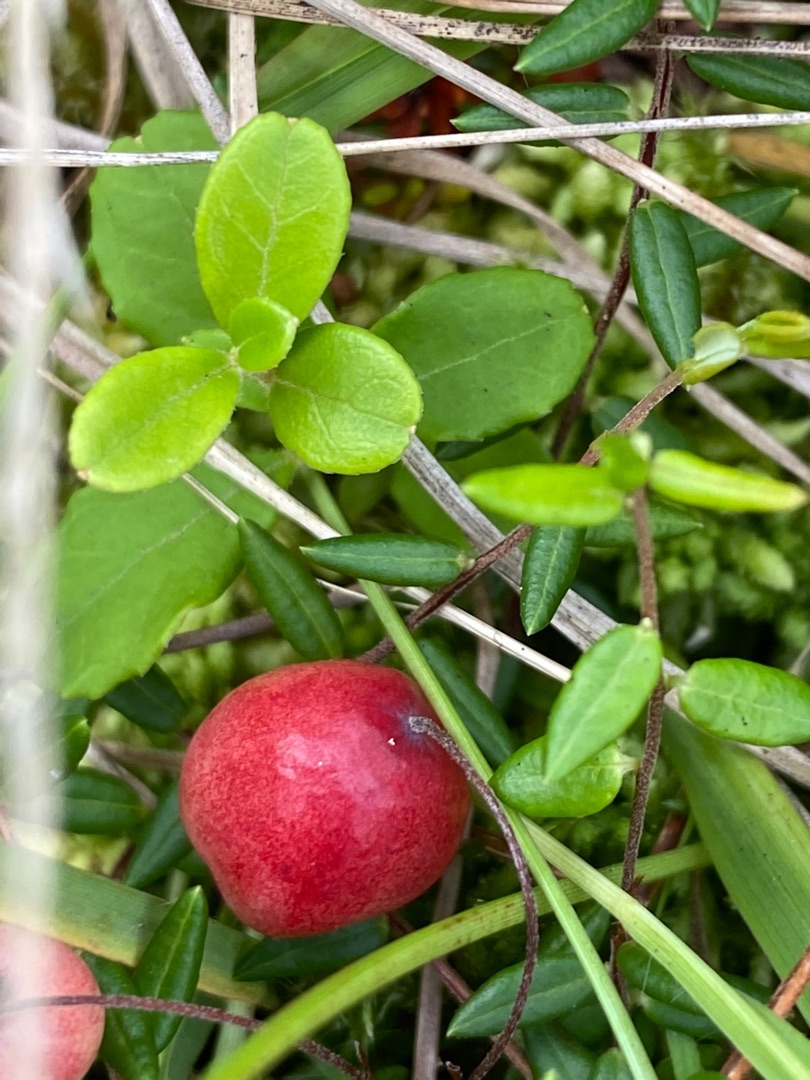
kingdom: Plantae
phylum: Tracheophyta
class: Magnoliopsida
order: Ericales
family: Ericaceae
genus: Vaccinium
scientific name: Vaccinium oxycoccos
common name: Tranebær
